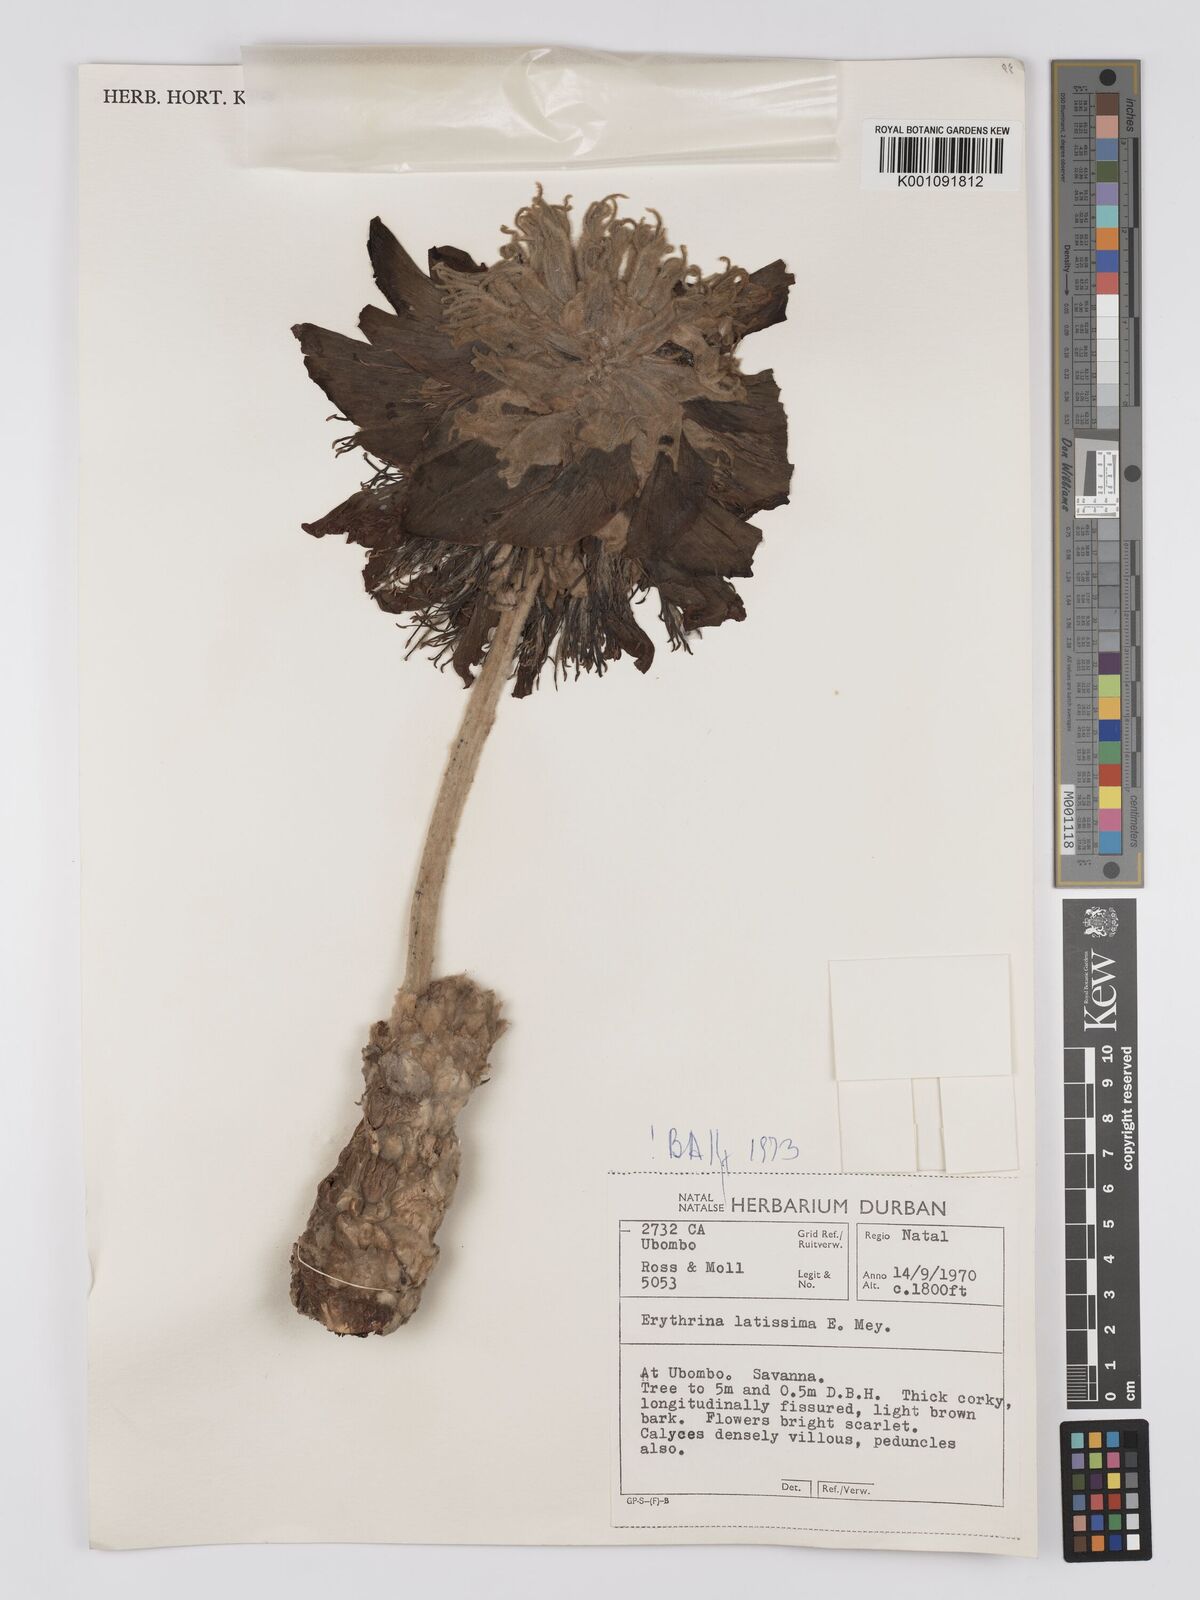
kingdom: Plantae
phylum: Tracheophyta
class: Magnoliopsida
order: Fabales
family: Fabaceae
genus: Erythrina
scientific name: Erythrina latissima
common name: Broad-leaved coral tree
